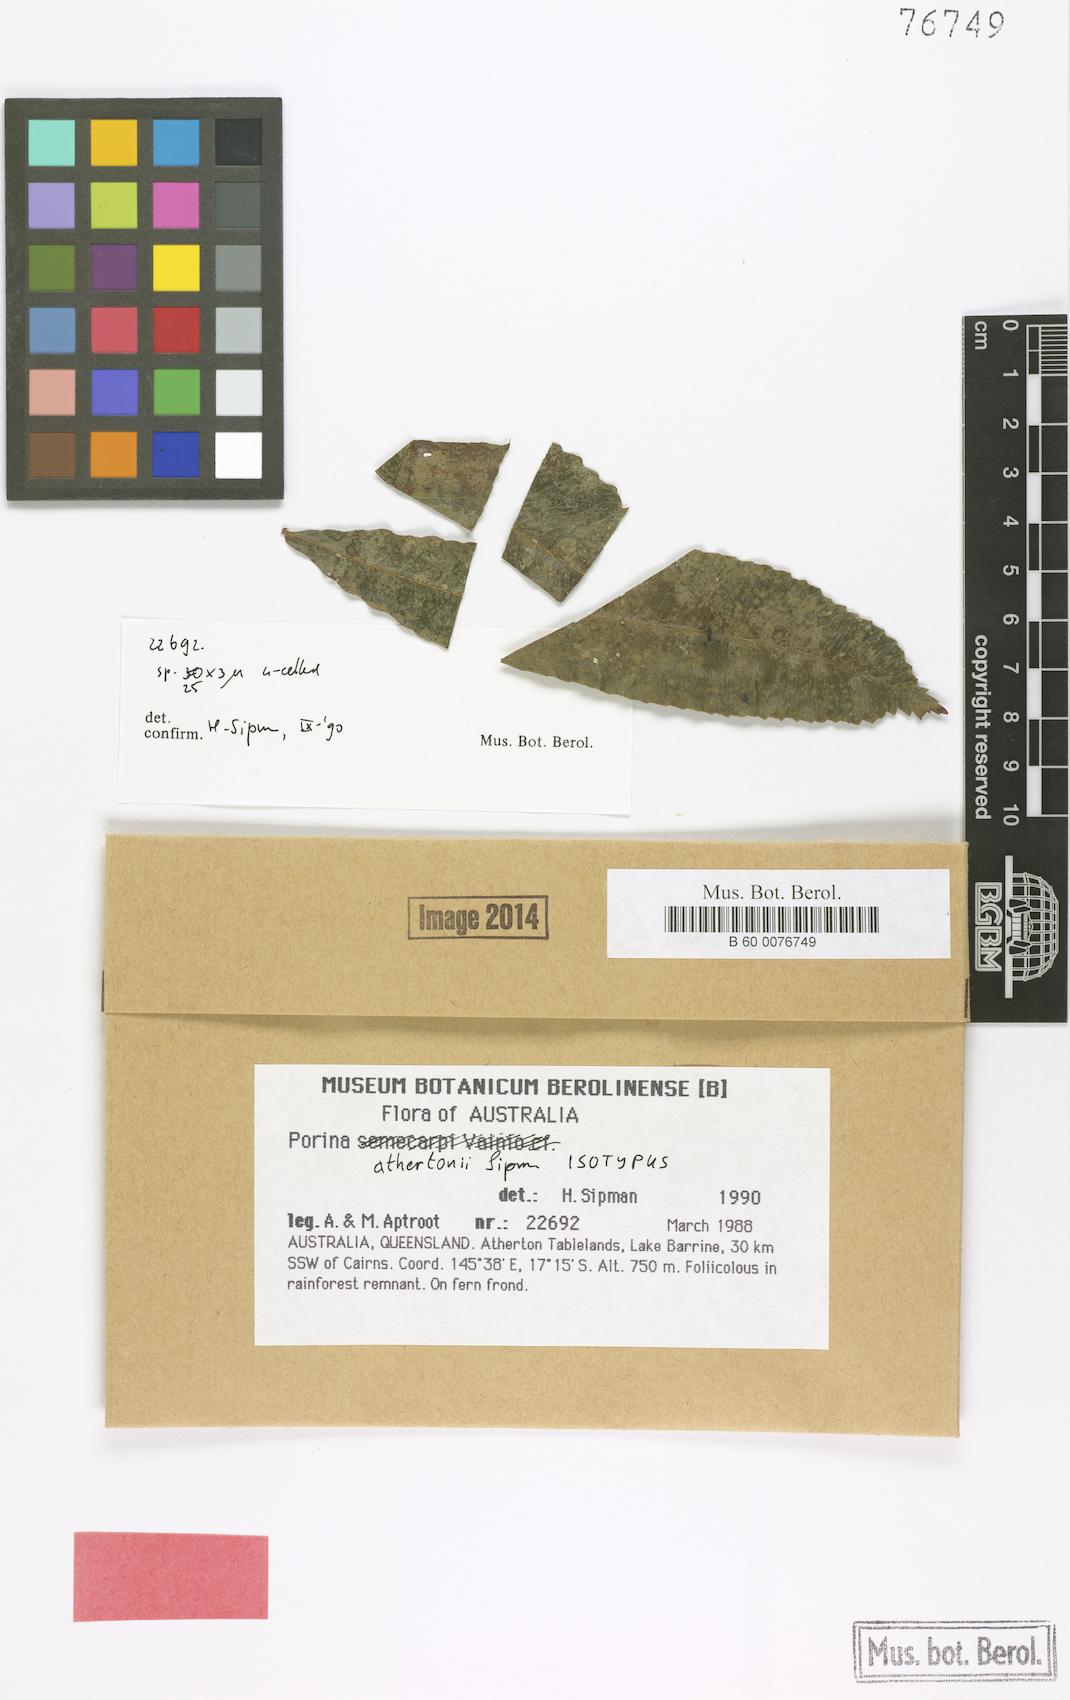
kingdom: Fungi
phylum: Ascomycota
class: Lecanoromycetes
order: Pertusariales
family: Pertusariaceae
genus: Porina
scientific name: Porina athertonii
